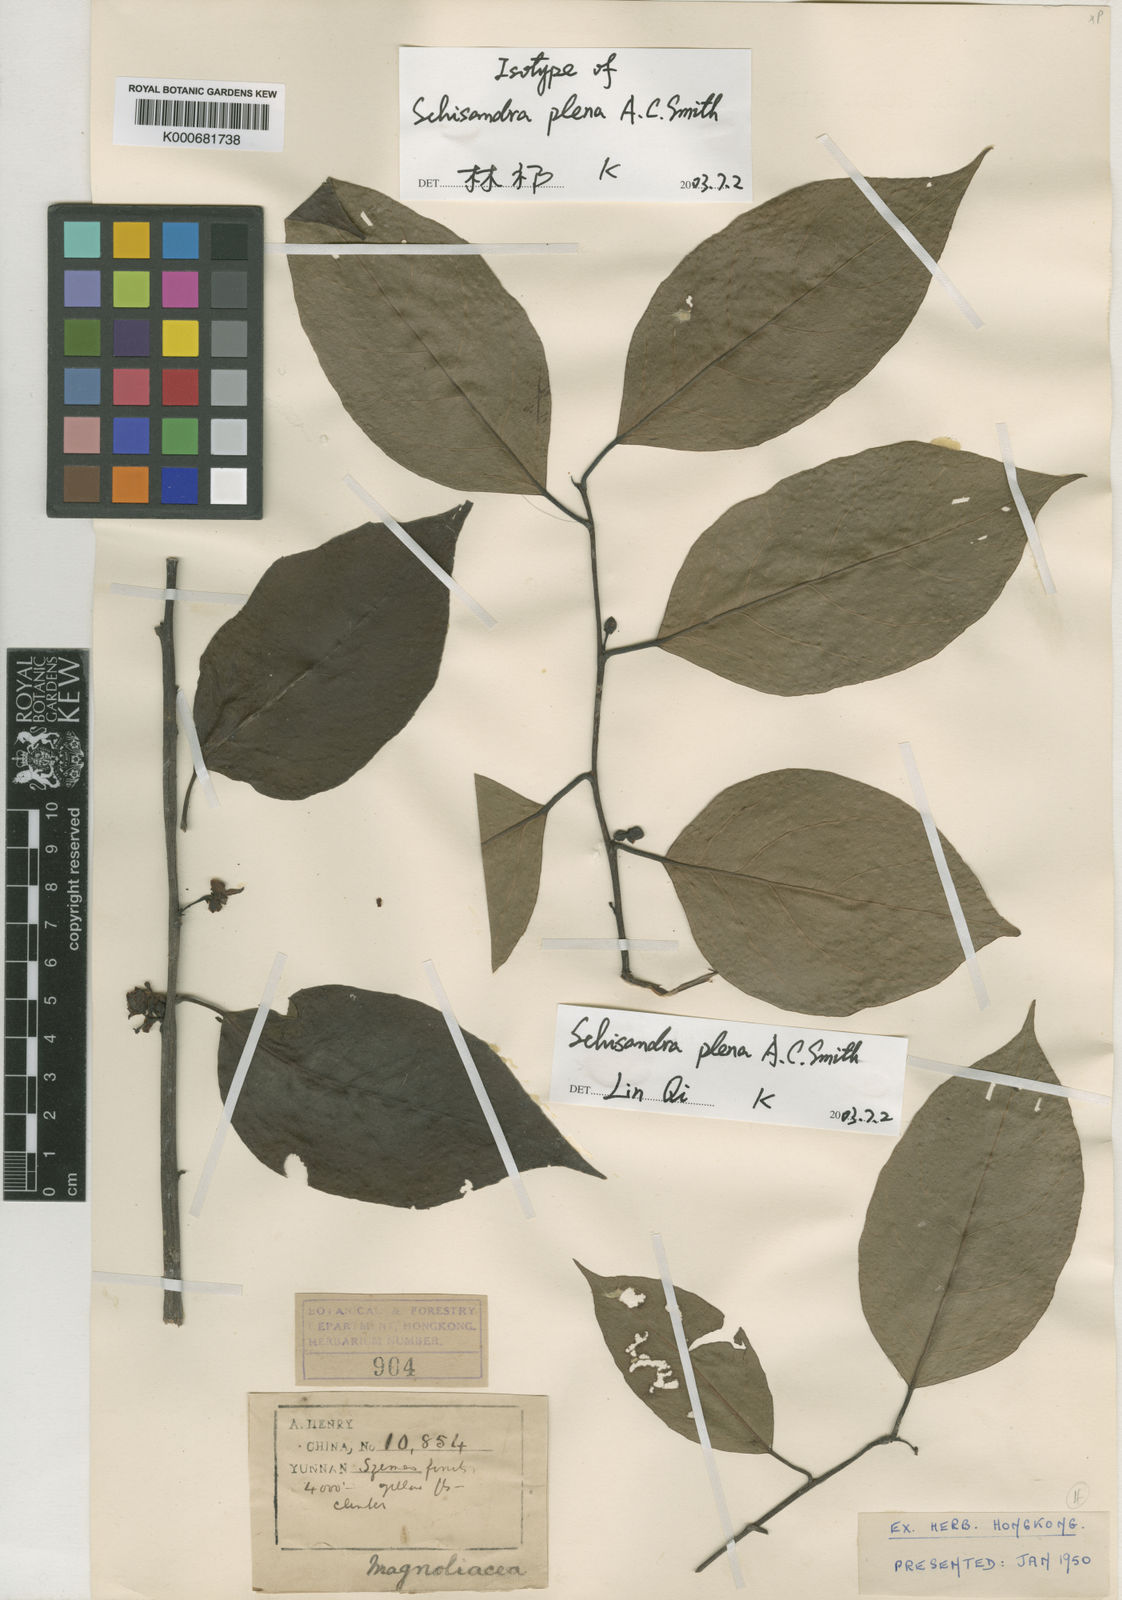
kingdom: Plantae
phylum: Tracheophyta
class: Magnoliopsida
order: Austrobaileyales
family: Schisandraceae
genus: Schisandra
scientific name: Schisandra plena
